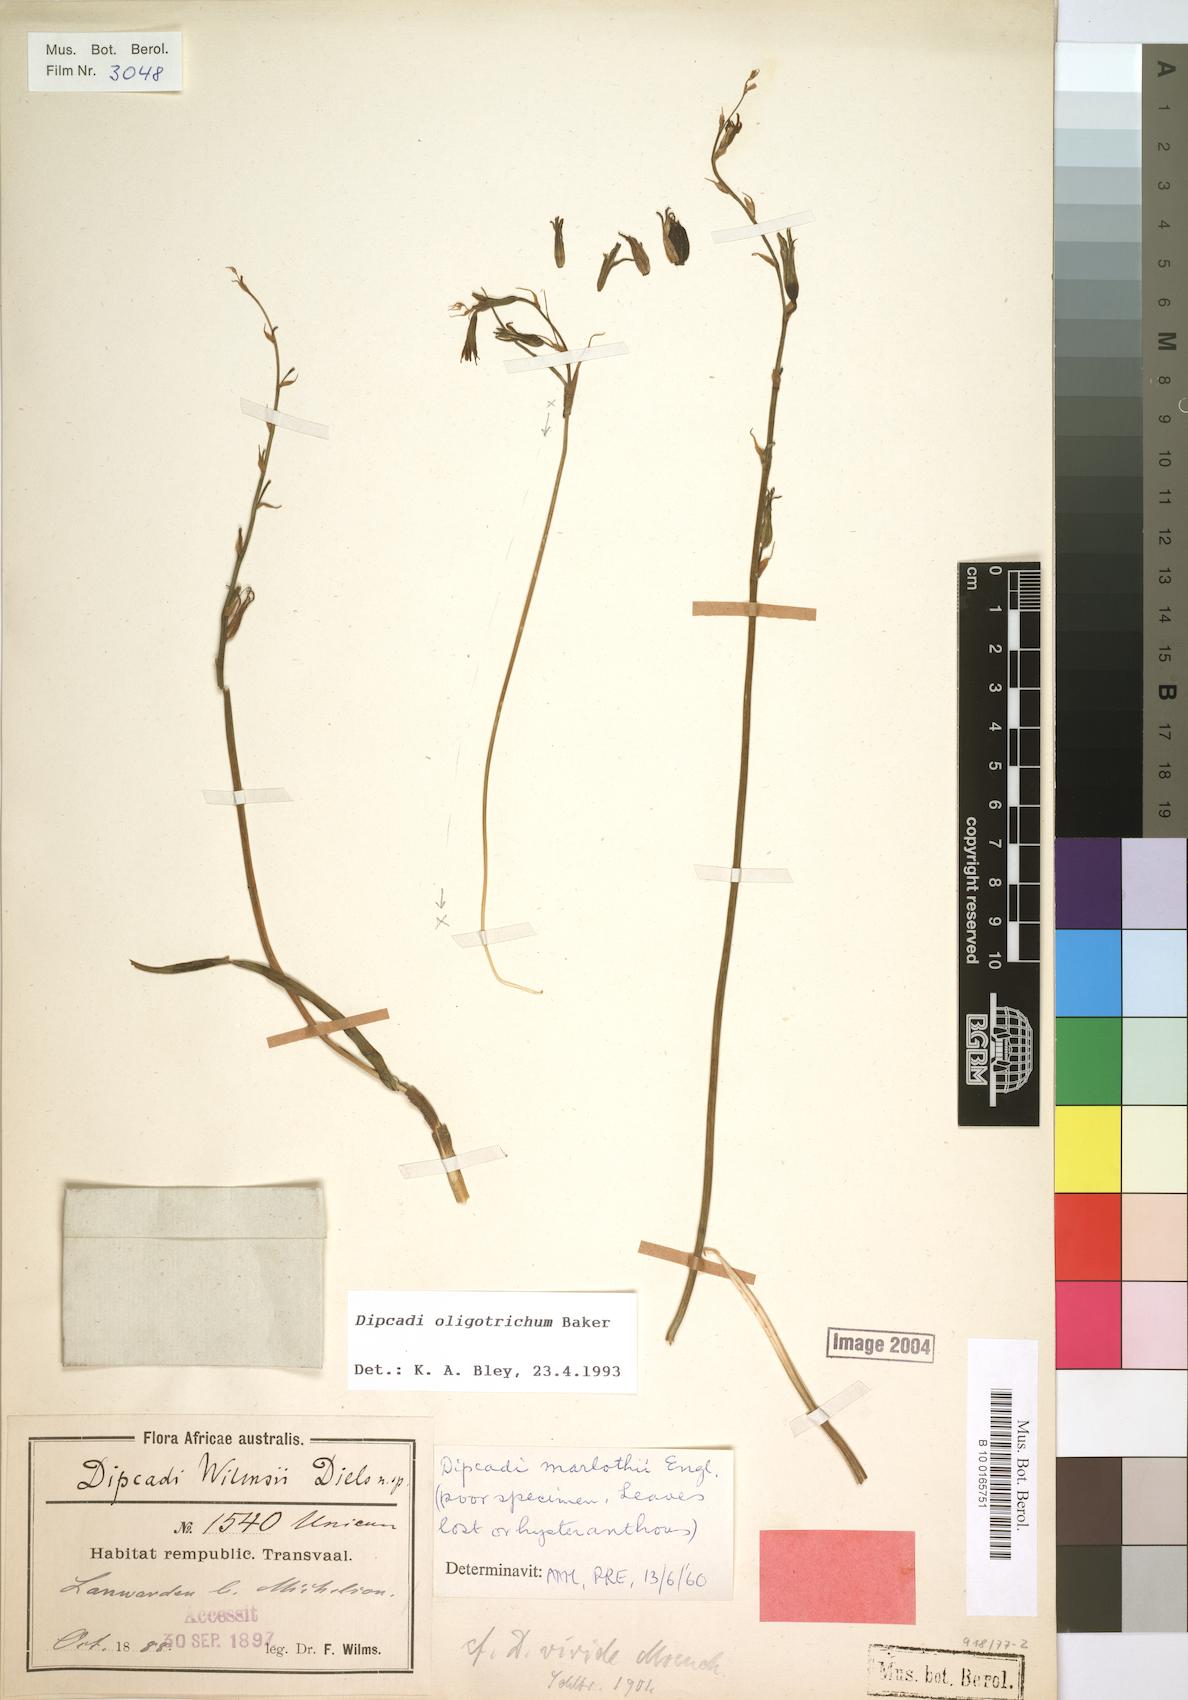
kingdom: Plantae
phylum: Tracheophyta
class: Liliopsida
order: Asparagales
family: Asparagaceae
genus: Dipcadi
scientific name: Dipcadi marlothii
